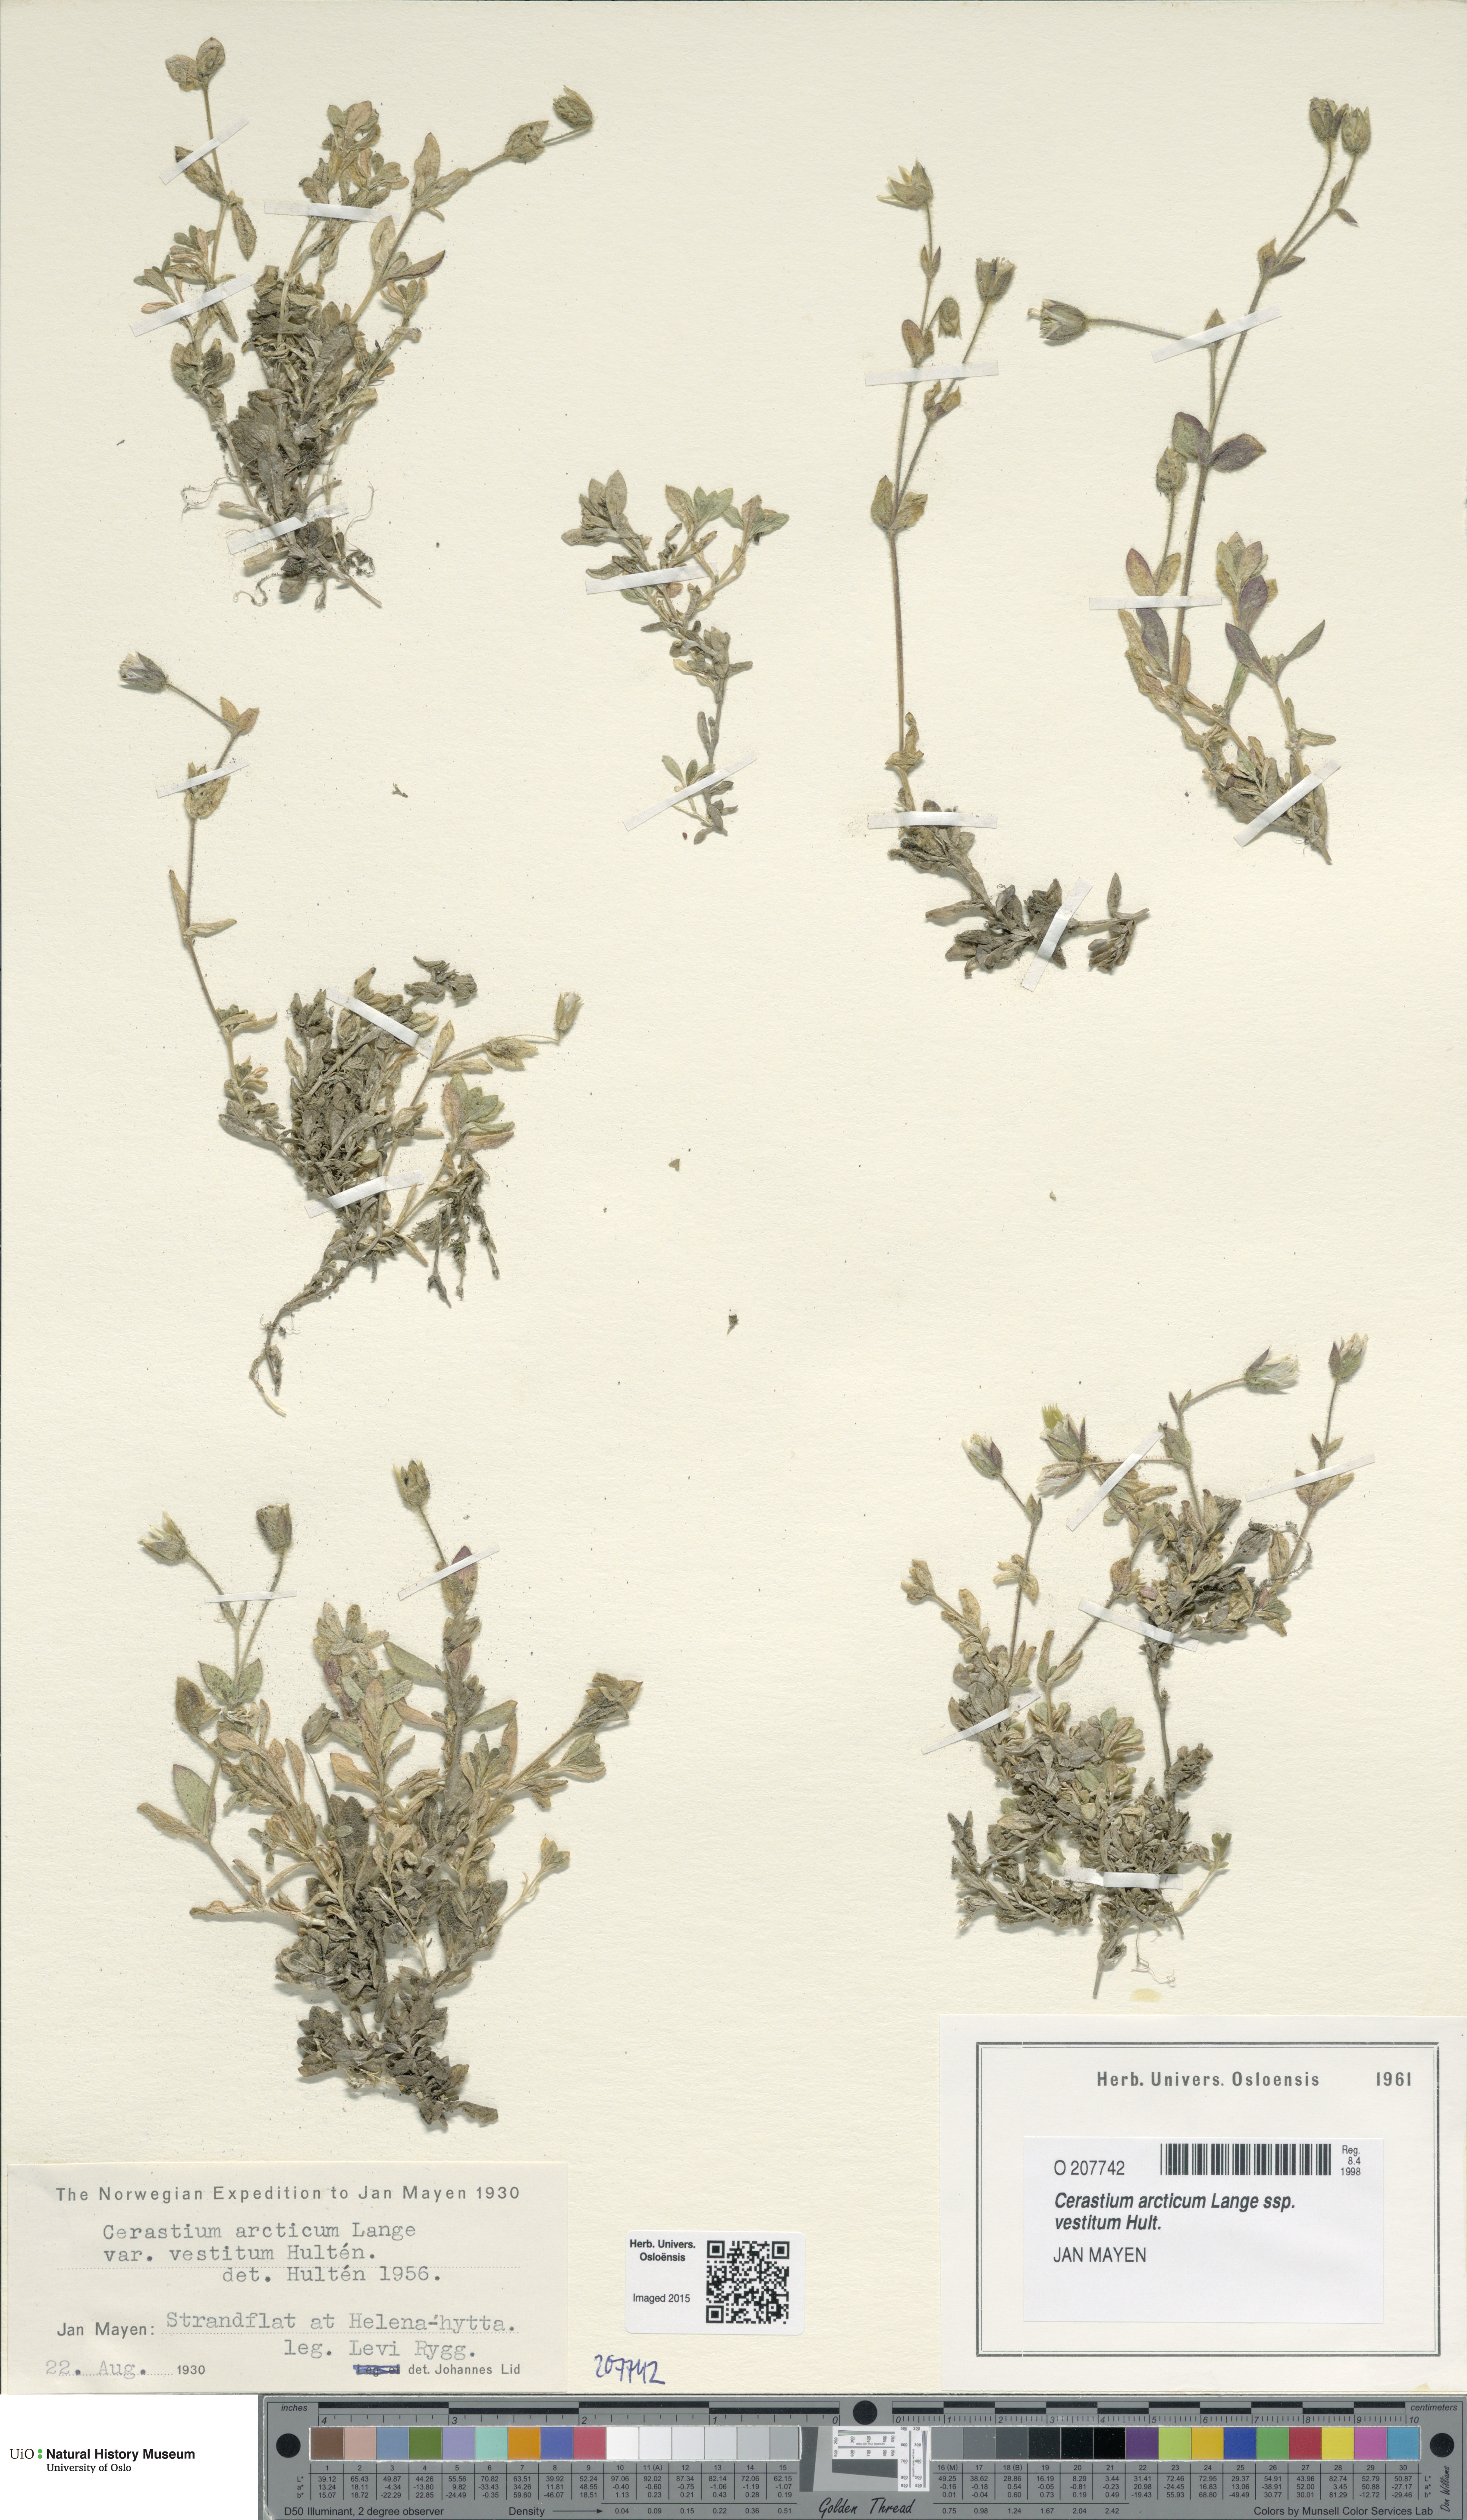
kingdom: Plantae
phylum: Tracheophyta
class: Magnoliopsida
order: Caryophyllales
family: Caryophyllaceae
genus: Cerastium
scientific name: Cerastium arcticum
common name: Arctic mouse-ear
